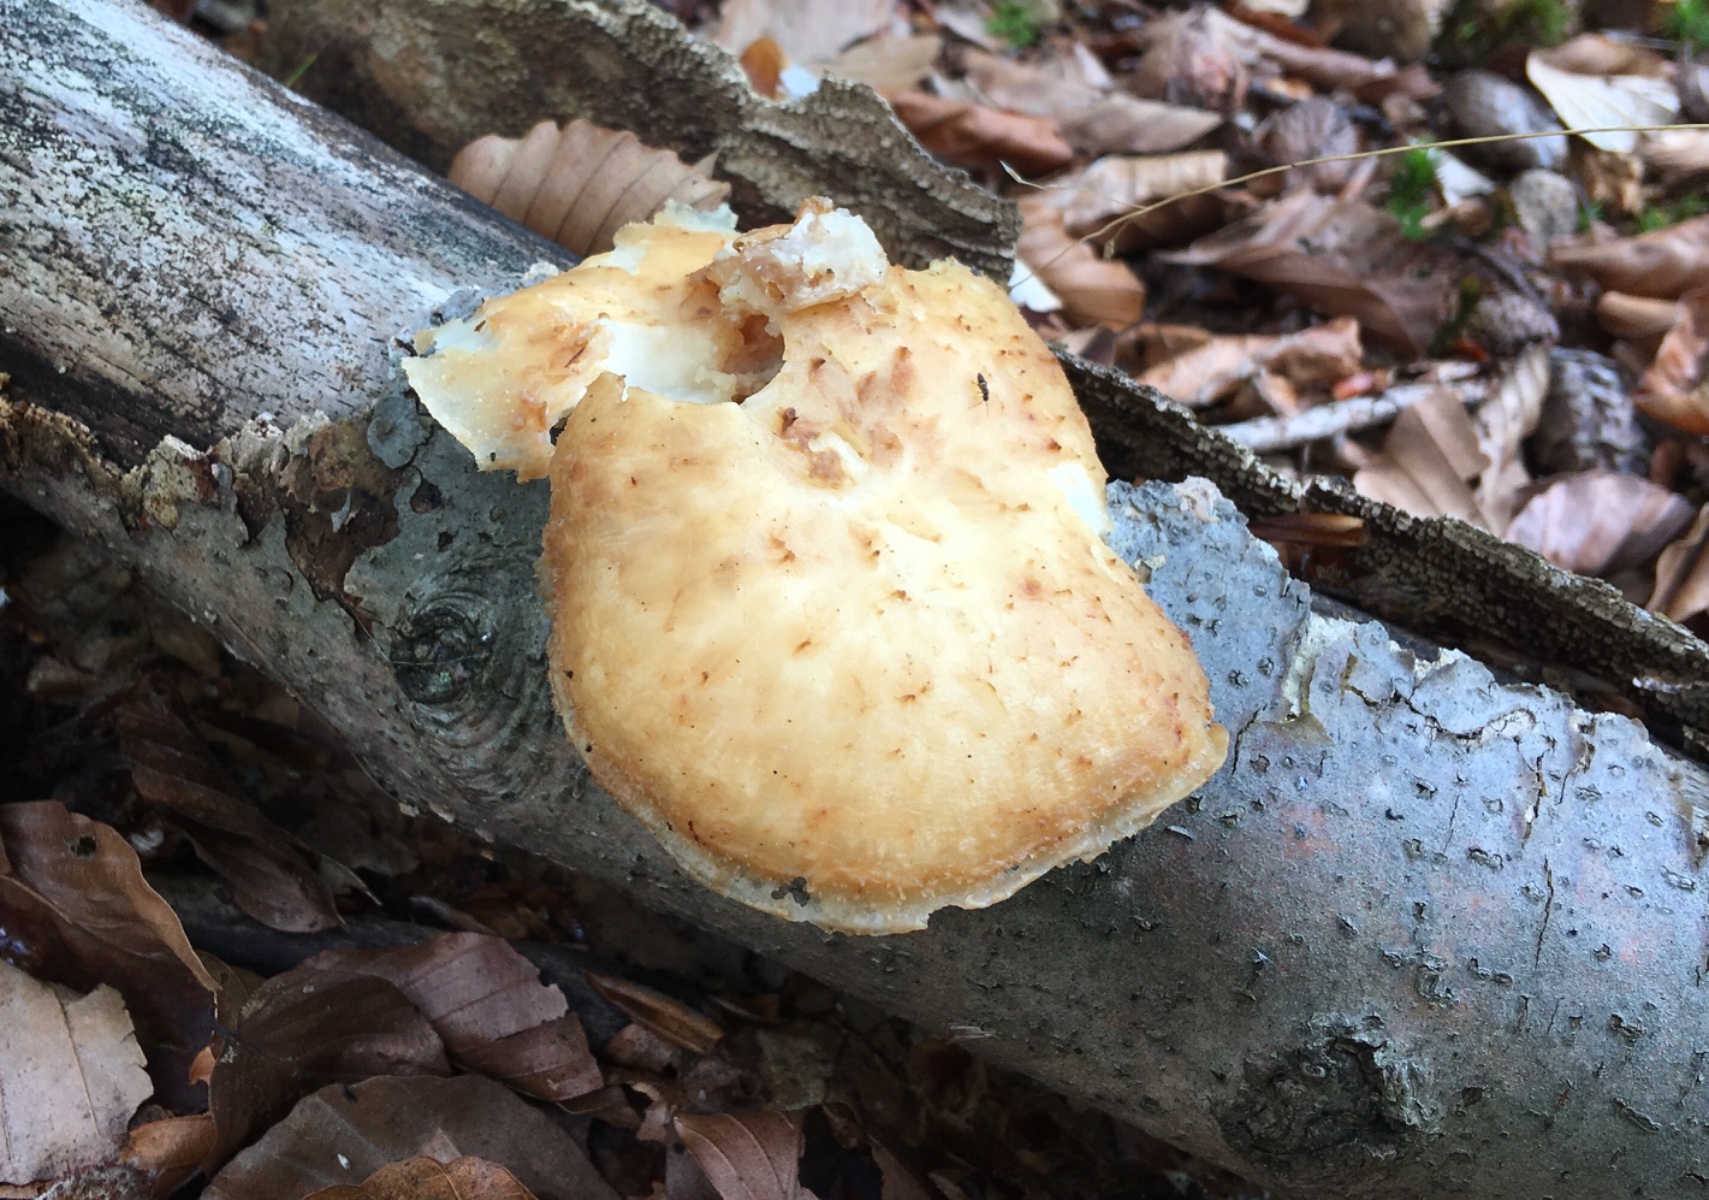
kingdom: Fungi
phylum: Basidiomycota
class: Agaricomycetes
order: Polyporales
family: Polyporaceae
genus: Polyporus
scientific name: Polyporus tuberaster
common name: knoldet stilkporesvamp
